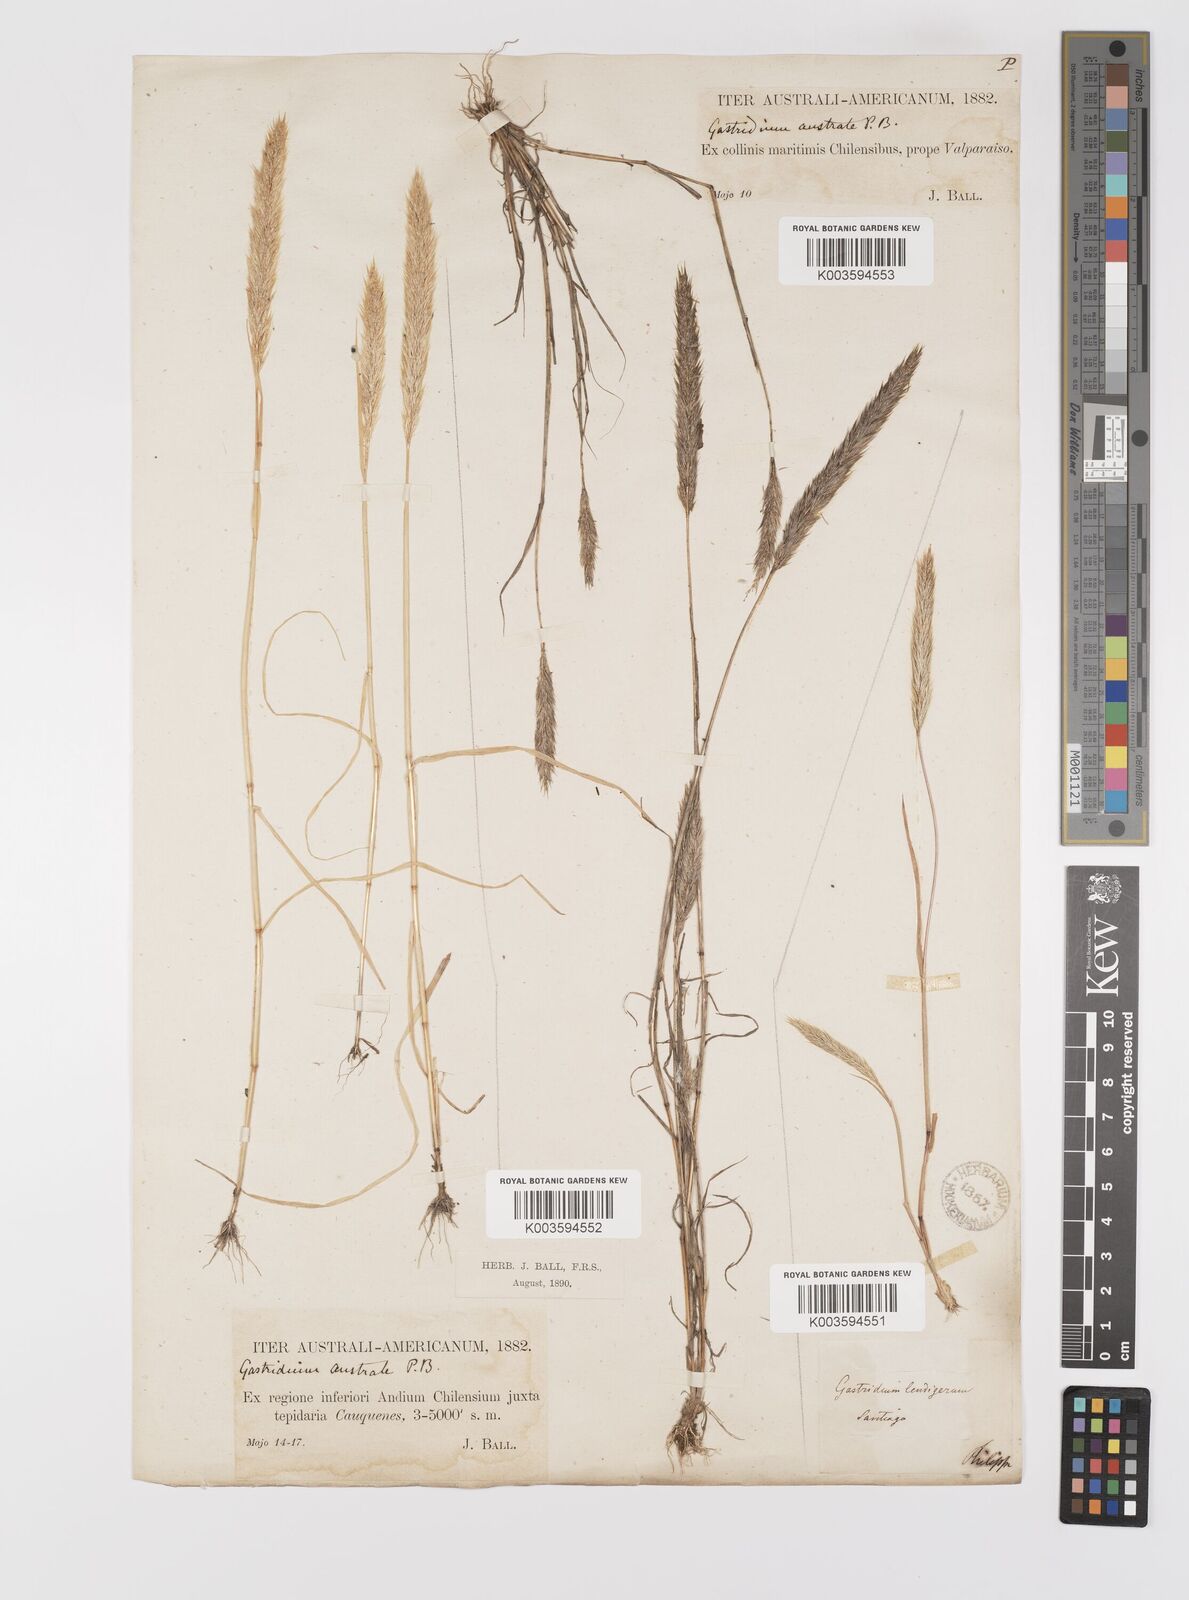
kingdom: Plantae
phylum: Tracheophyta
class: Liliopsida
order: Poales
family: Poaceae
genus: Gastridium
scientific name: Gastridium phleoides
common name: Nit grass
